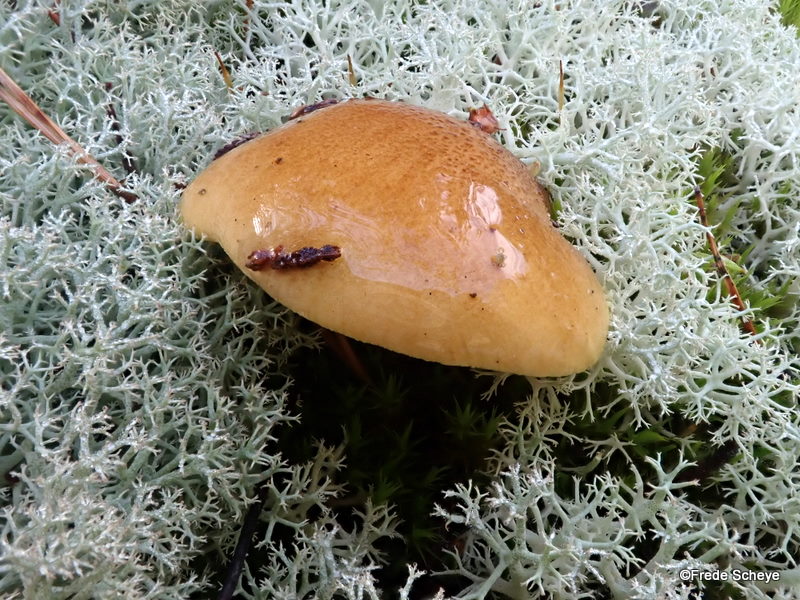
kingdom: Fungi
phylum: Basidiomycota
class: Agaricomycetes
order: Agaricales
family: Tricholomataceae
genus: Tricholoma
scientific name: Tricholoma equestre
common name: ægte ridderhat
